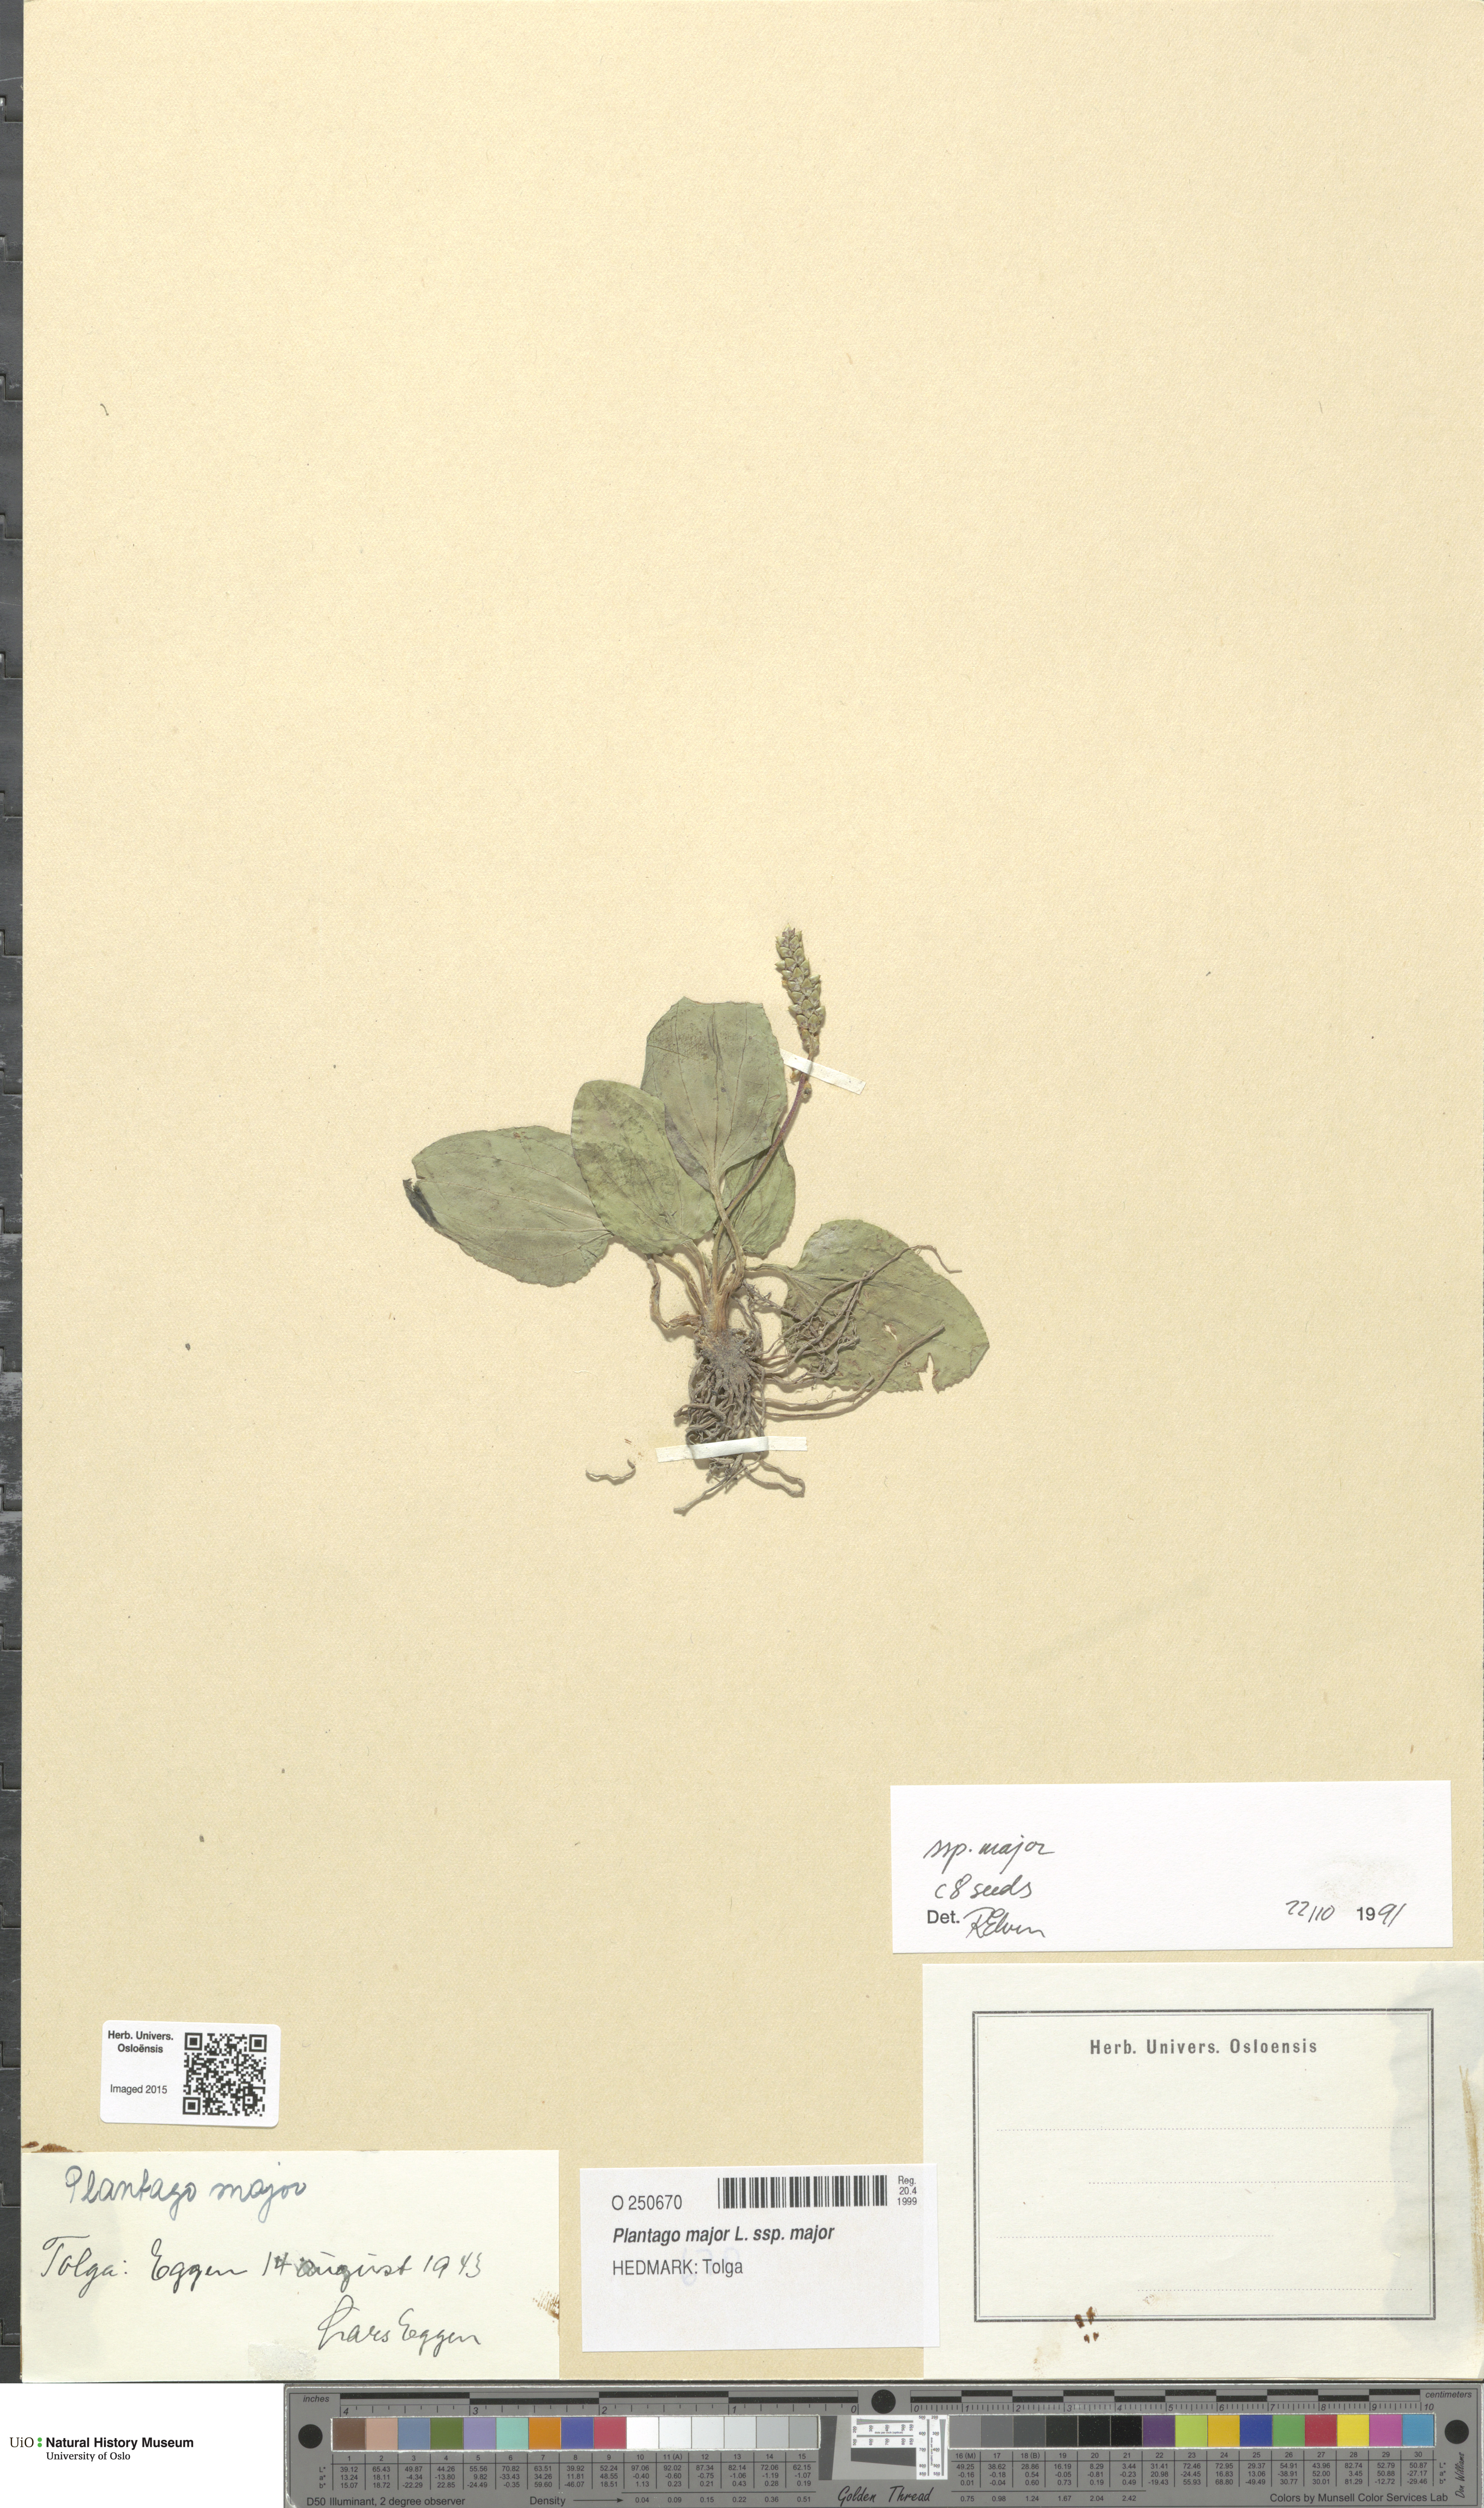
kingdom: Plantae
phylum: Tracheophyta
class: Magnoliopsida
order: Lamiales
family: Plantaginaceae
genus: Plantago
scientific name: Plantago major
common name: Common plantain
